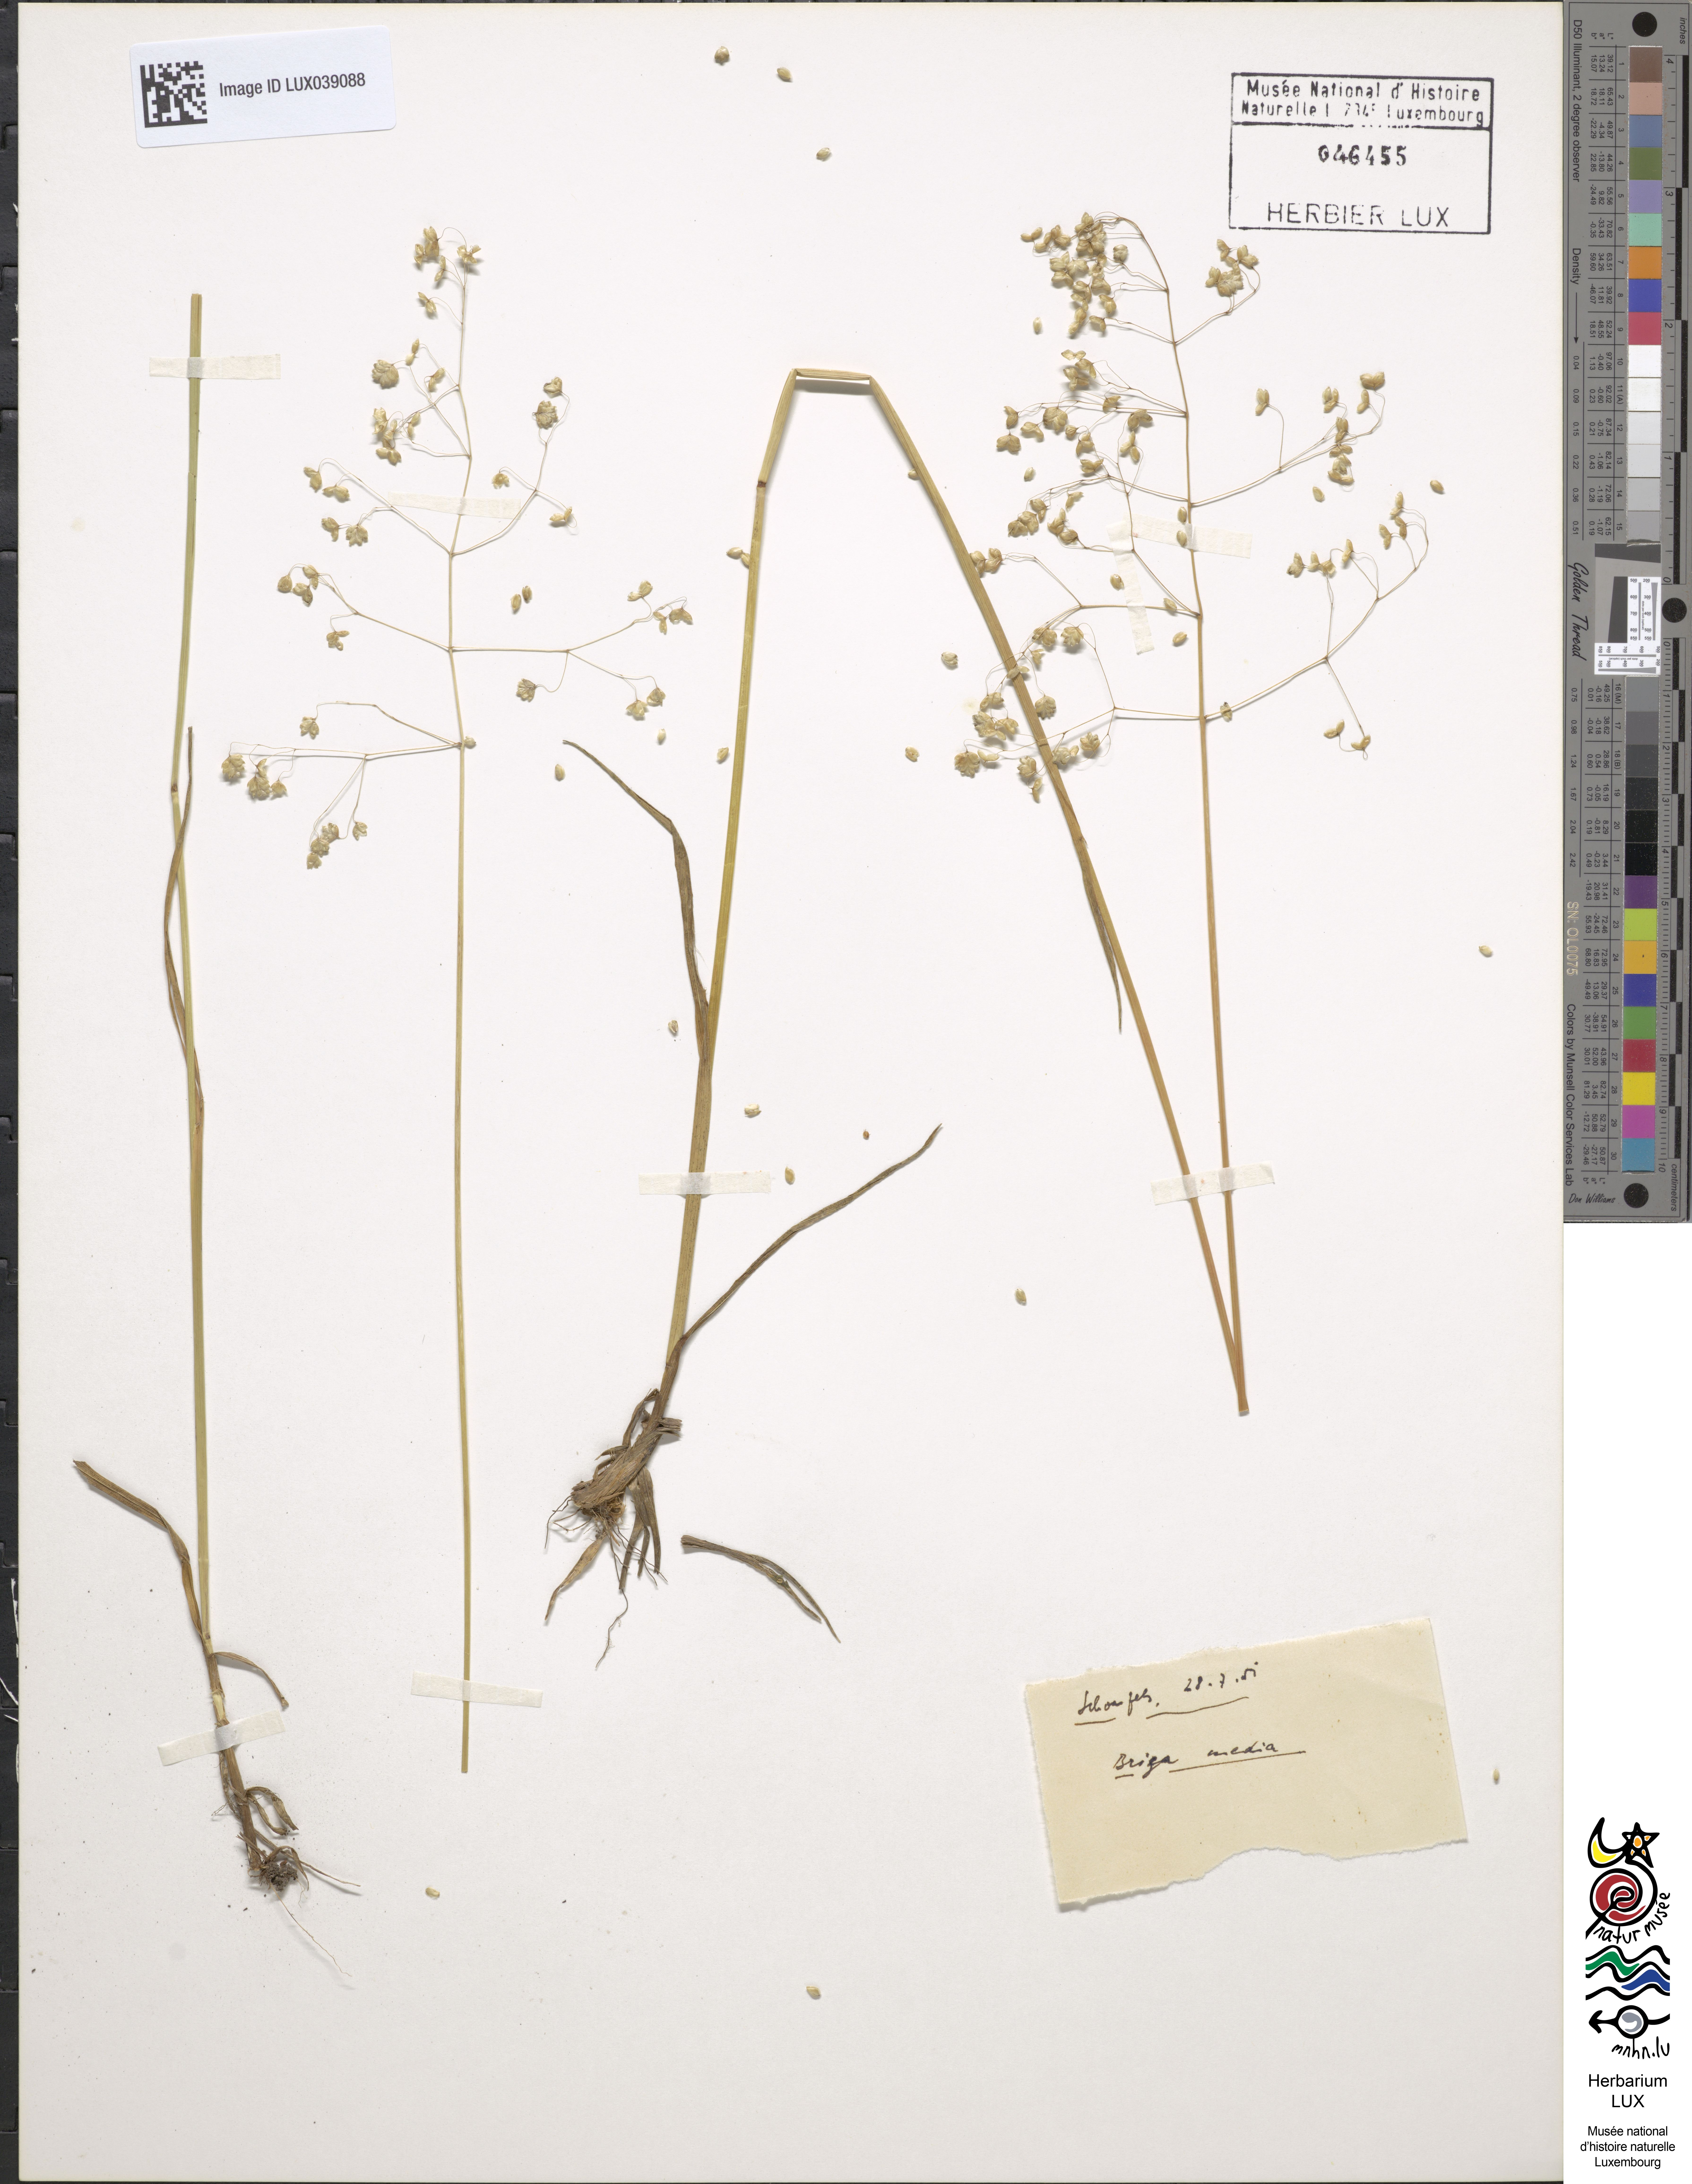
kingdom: Plantae
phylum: Tracheophyta
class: Liliopsida
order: Poales
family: Poaceae
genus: Briza
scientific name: Briza media
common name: Quaking grass
